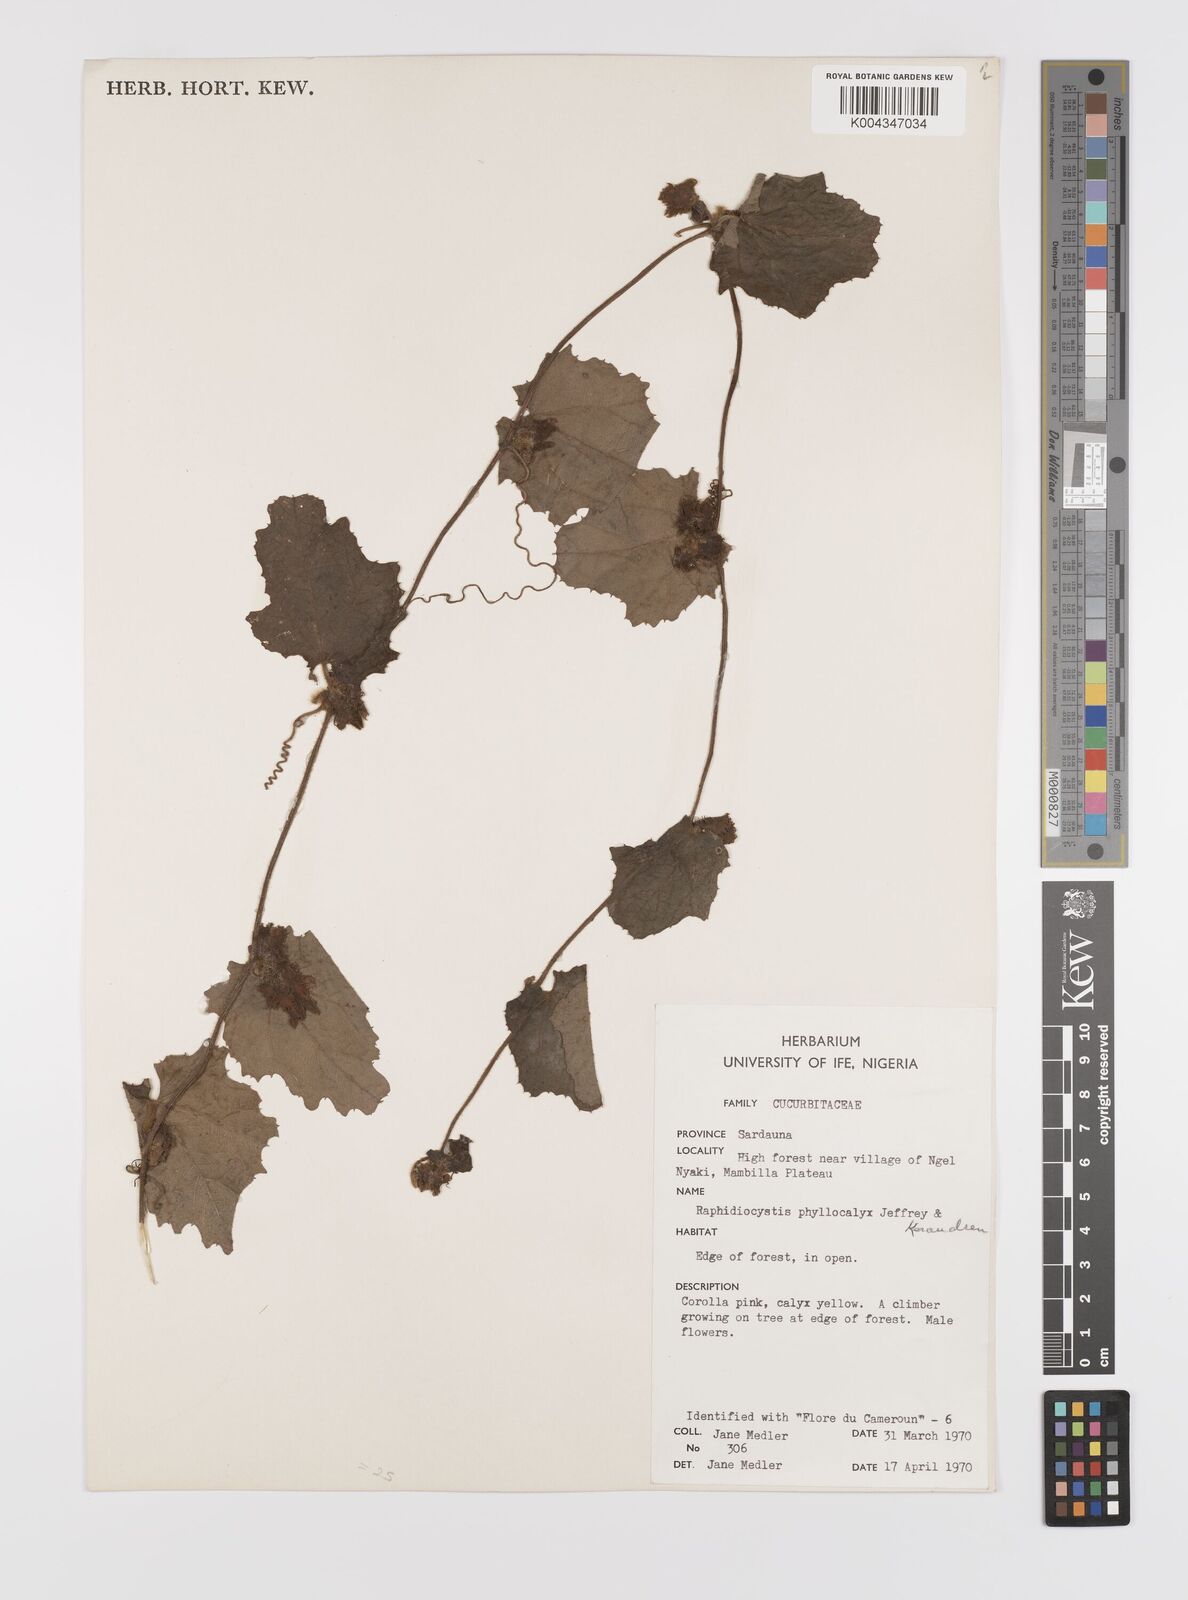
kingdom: Plantae
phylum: Tracheophyta
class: Magnoliopsida
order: Cucurbitales
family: Cucurbitaceae
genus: Raphidiocystis
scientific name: Raphidiocystis phyllocalyx
